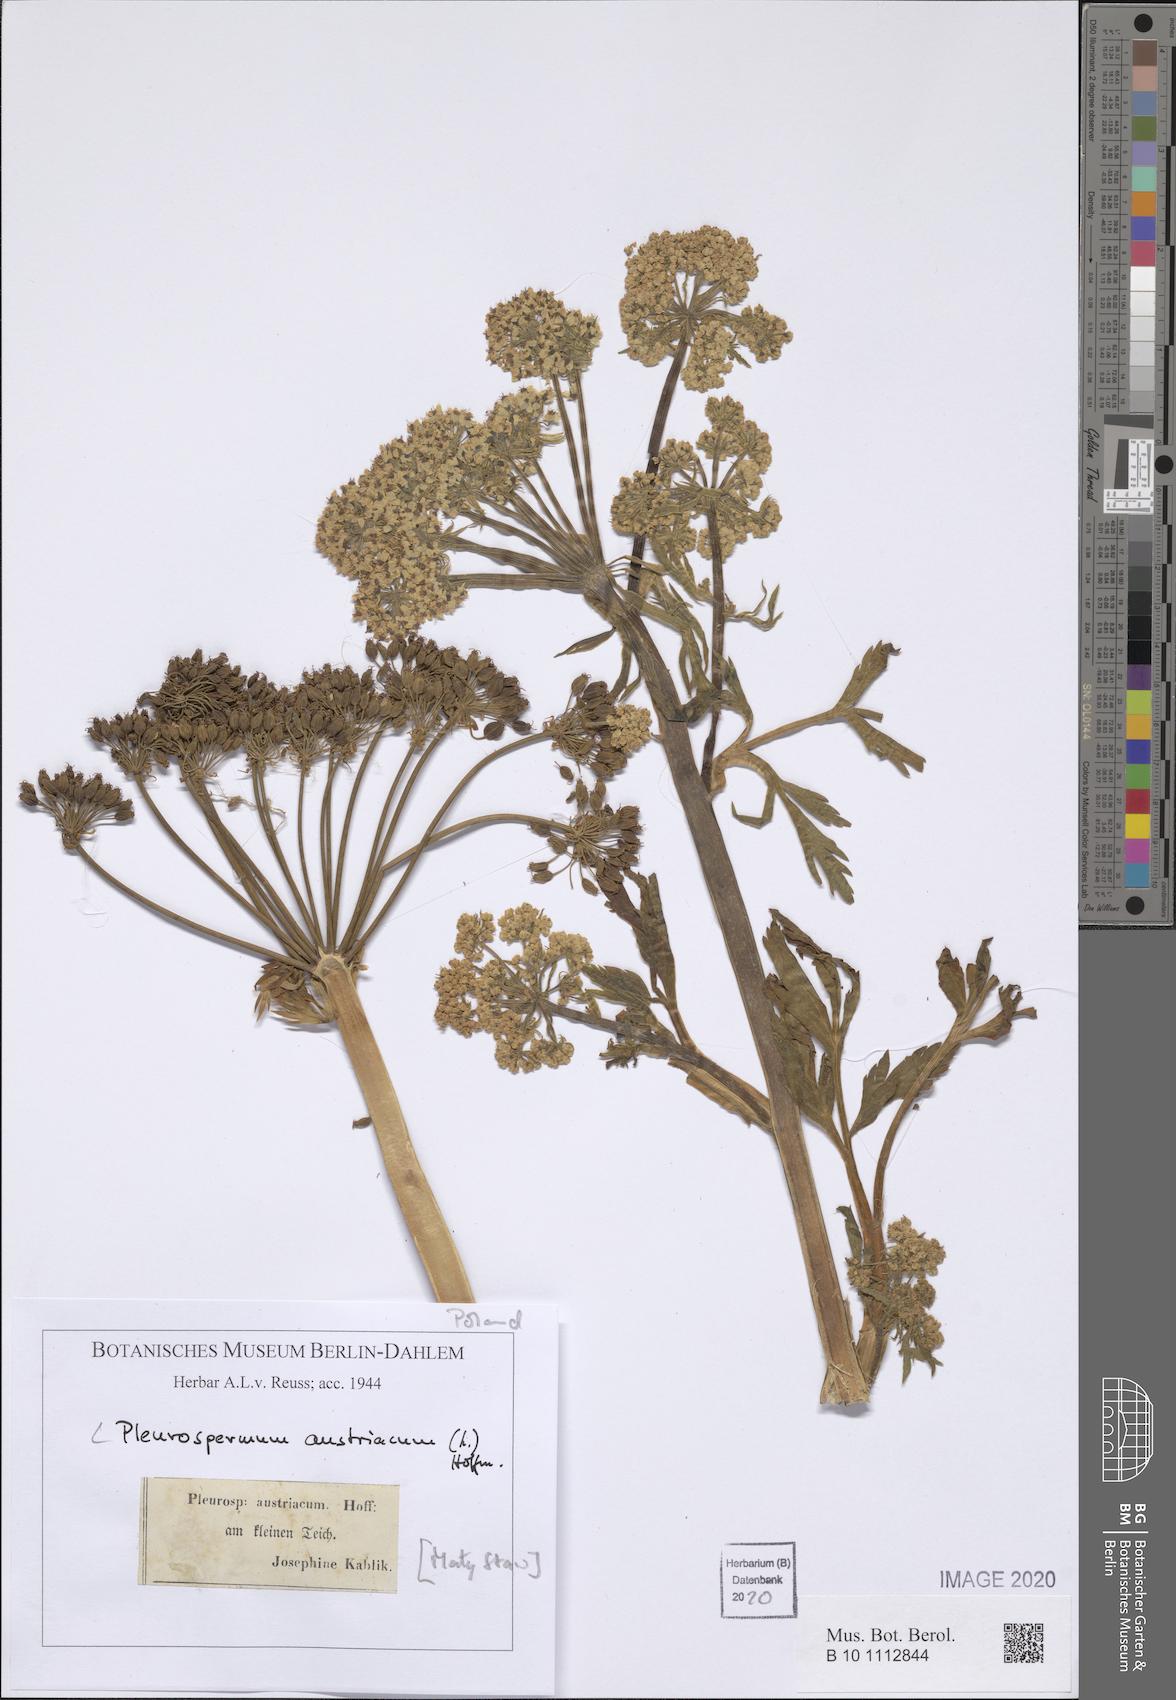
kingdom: Plantae
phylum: Tracheophyta
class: Magnoliopsida
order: Apiales
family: Apiaceae
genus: Pleurospermum
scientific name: Pleurospermum austriacum
